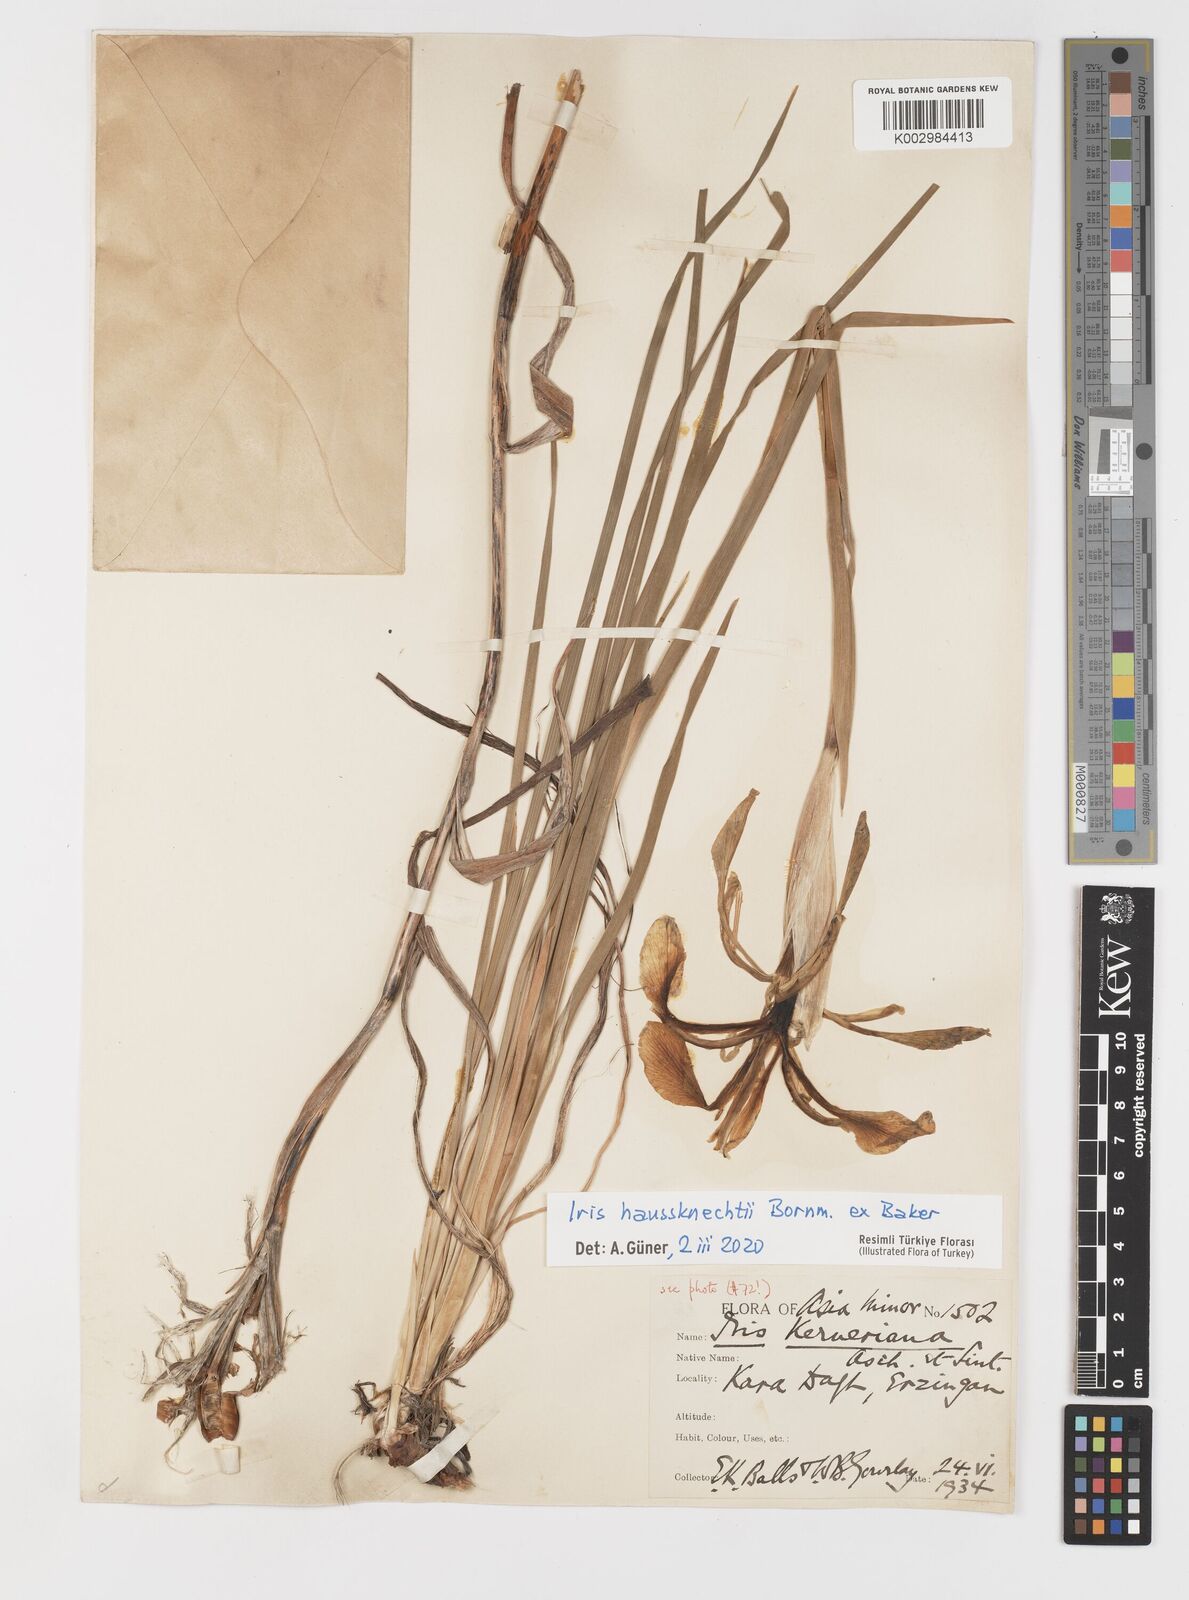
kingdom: Plantae
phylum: Tracheophyta
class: Liliopsida
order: Asparagales
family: Iridaceae
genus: Iris
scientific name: Iris haussknechtii
